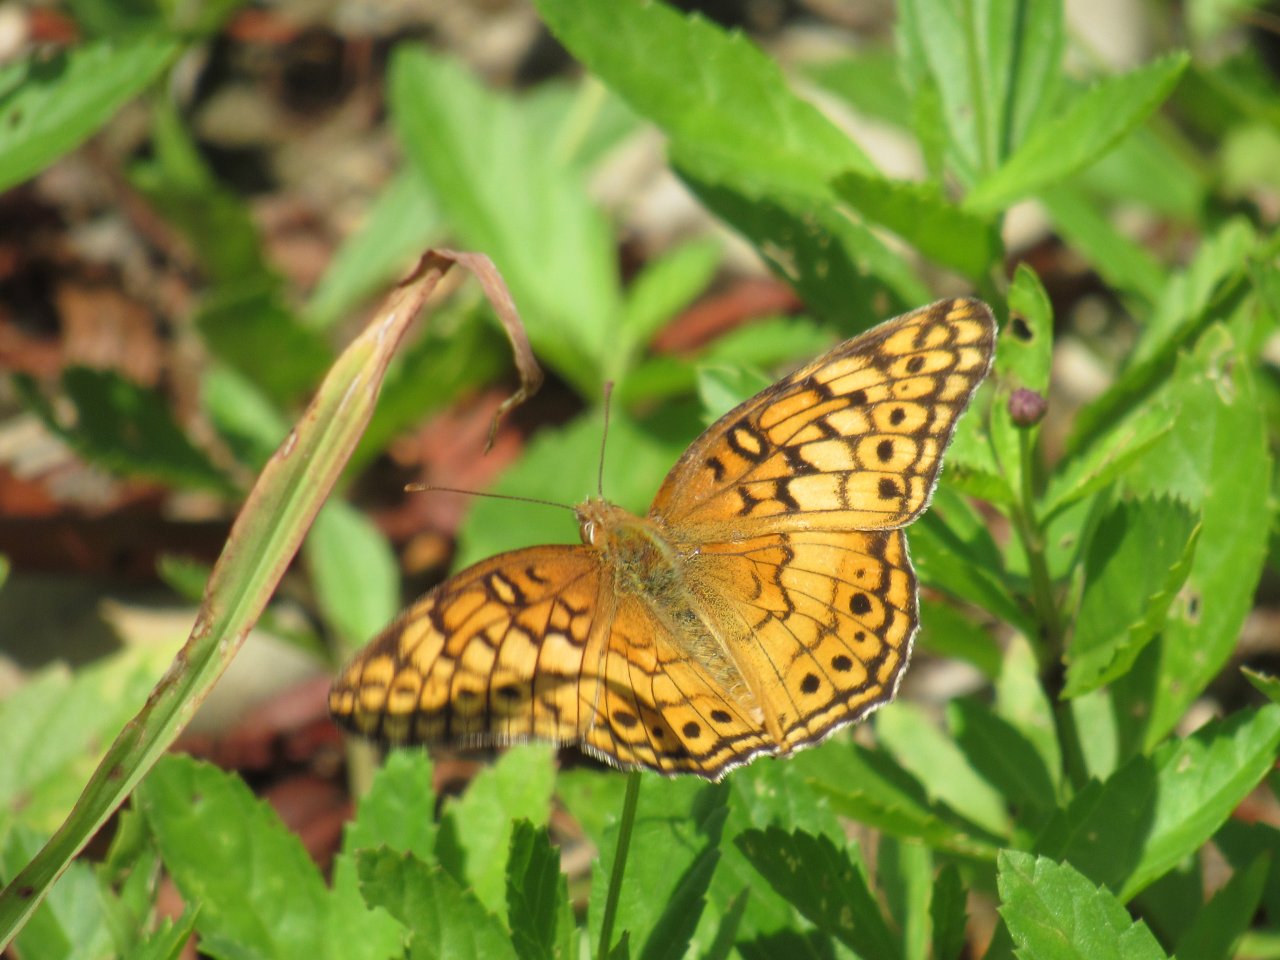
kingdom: Animalia
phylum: Arthropoda
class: Insecta
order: Lepidoptera
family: Nymphalidae
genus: Euptoieta
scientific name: Euptoieta claudia
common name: Variegated Fritillary
